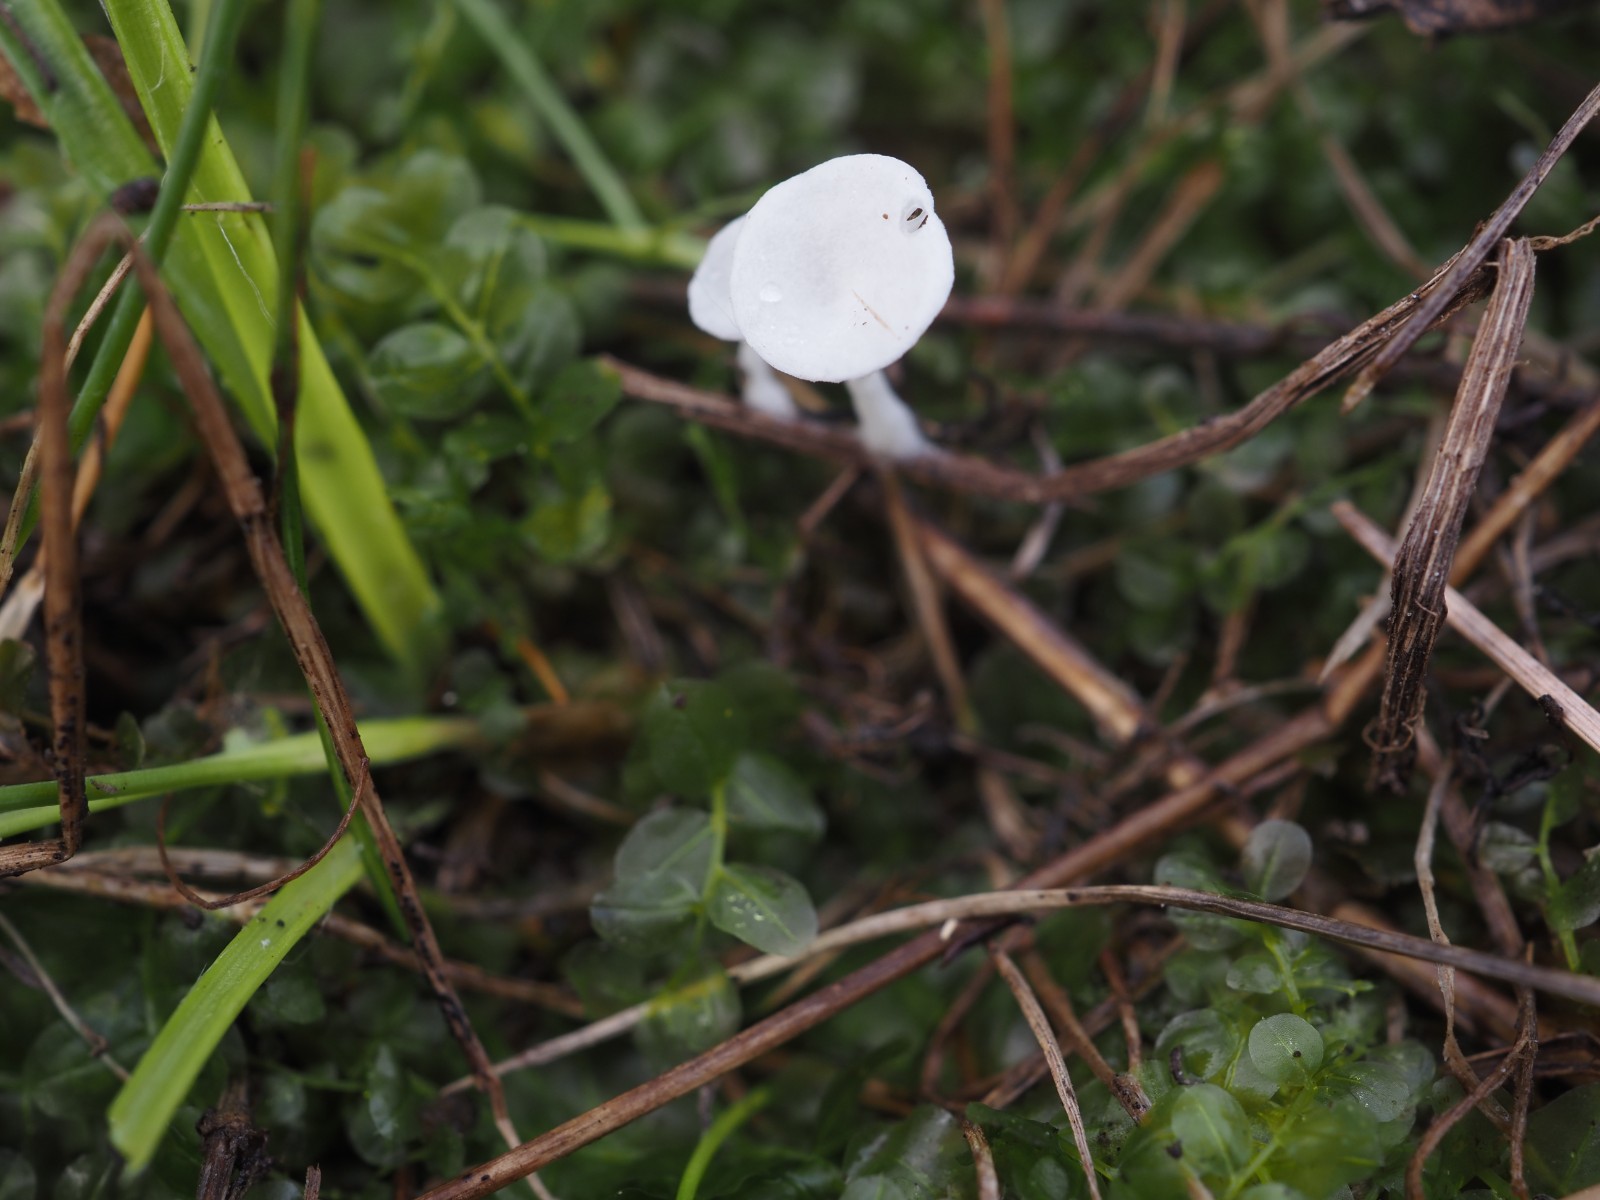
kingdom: Fungi
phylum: Basidiomycota
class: Agaricomycetes
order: Agaricales
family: Entolomataceae
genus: Clitopilus
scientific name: Clitopilus scyphoides
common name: spinkel melhat
